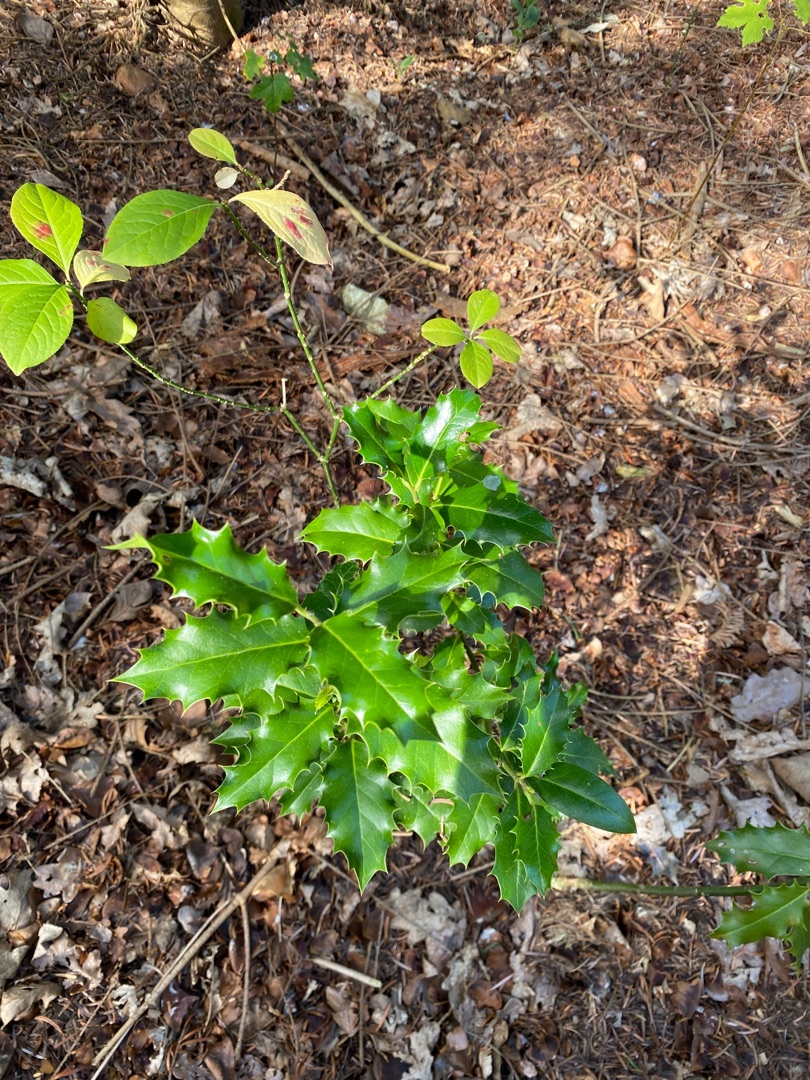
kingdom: Plantae
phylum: Tracheophyta
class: Magnoliopsida
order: Aquifoliales
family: Aquifoliaceae
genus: Ilex
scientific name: Ilex aquifolium
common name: Kristtorn
